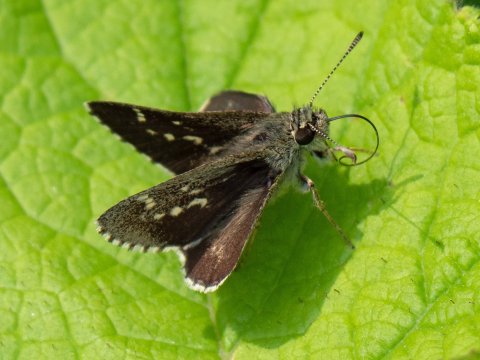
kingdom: Animalia
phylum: Arthropoda
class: Insecta
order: Lepidoptera
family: Hesperiidae
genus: Mastor
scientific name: Mastor hegon
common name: Pepper and Salt Skipper
